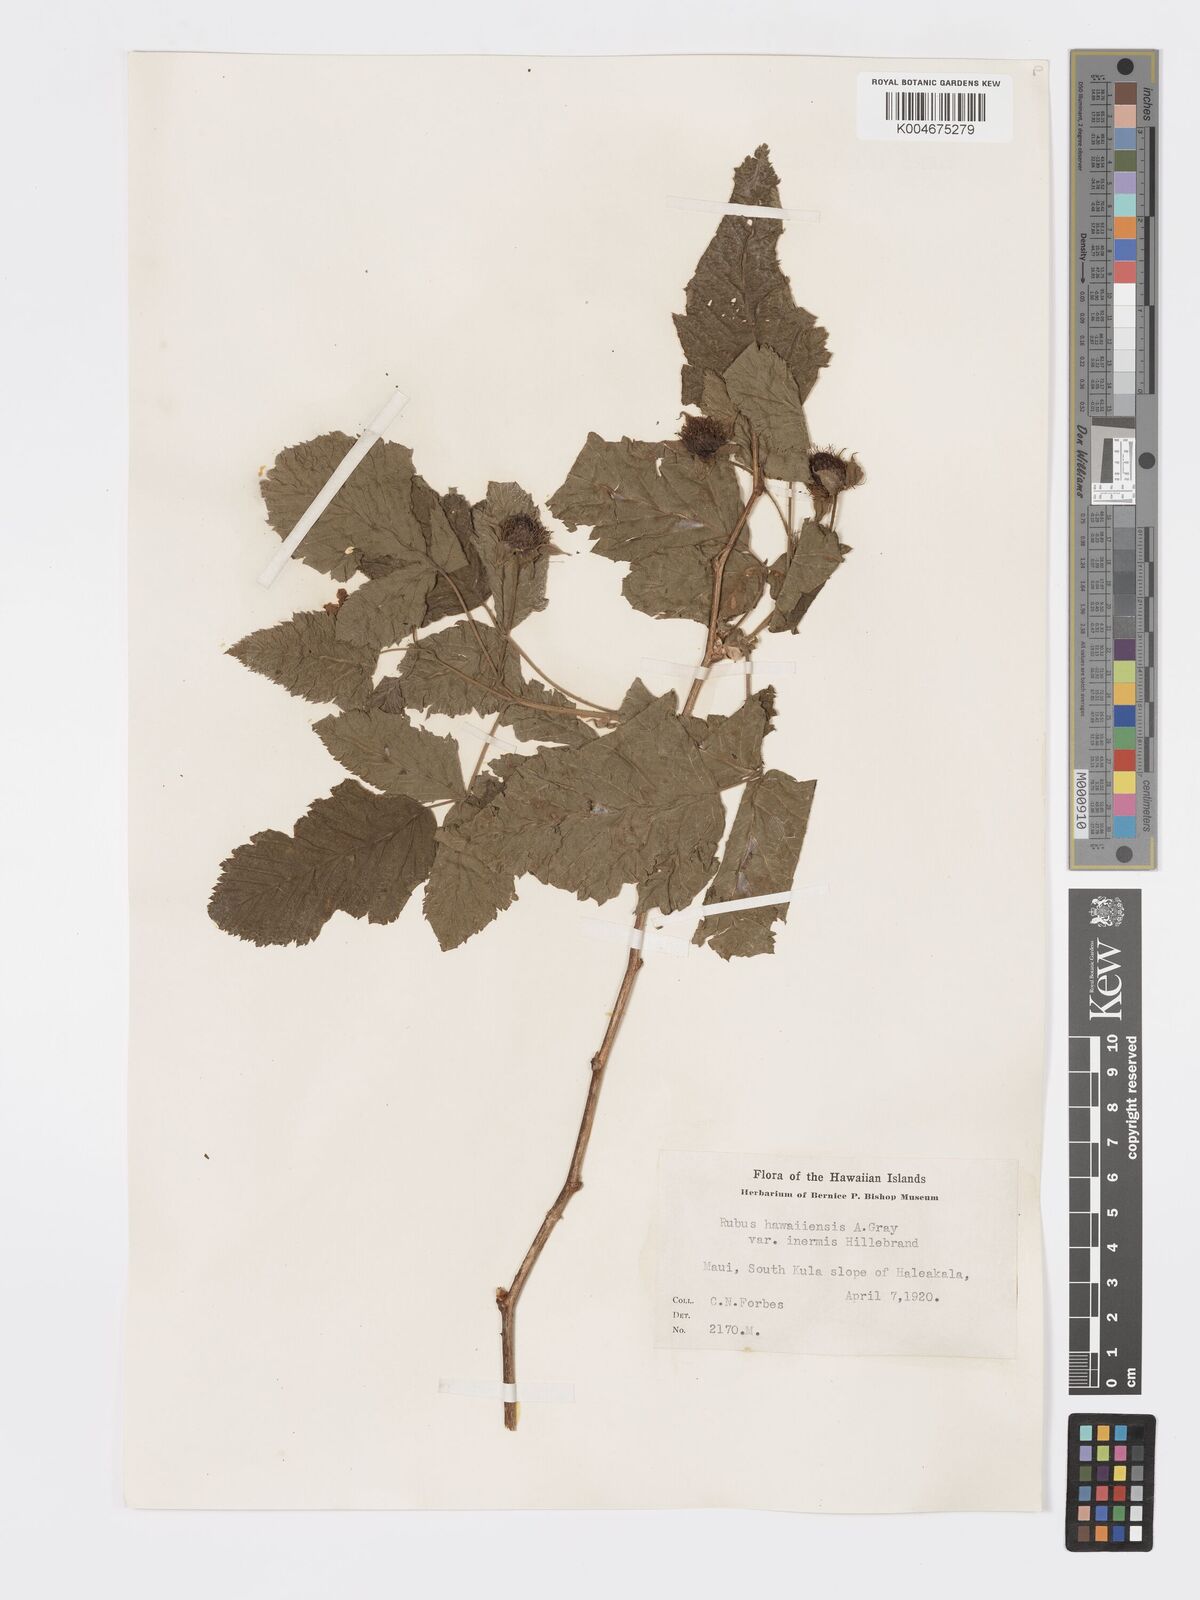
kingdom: Plantae
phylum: Tracheophyta
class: Magnoliopsida
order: Rosales
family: Rosaceae
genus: Rubus
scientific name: Rubus hawaiensis
